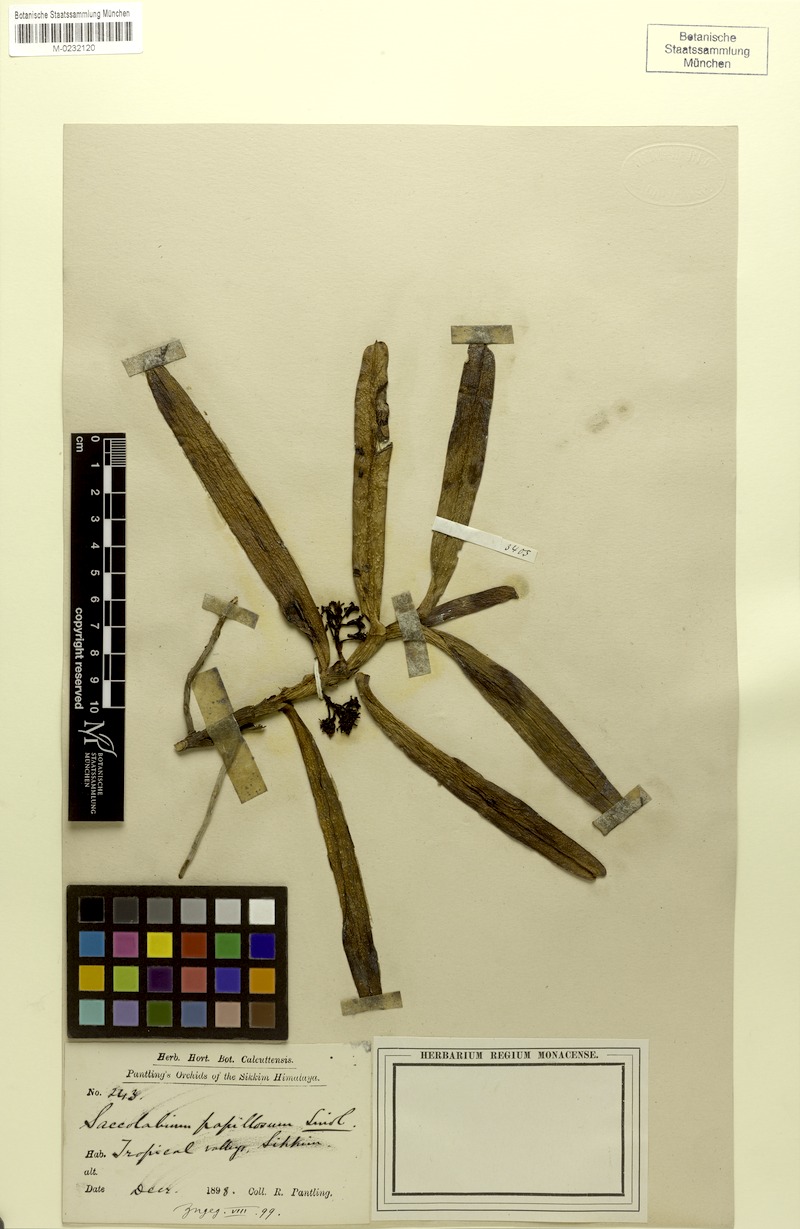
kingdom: Plantae
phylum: Tracheophyta
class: Liliopsida
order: Asparagales
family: Orchidaceae
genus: Acampe
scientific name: Acampe praemorsa
